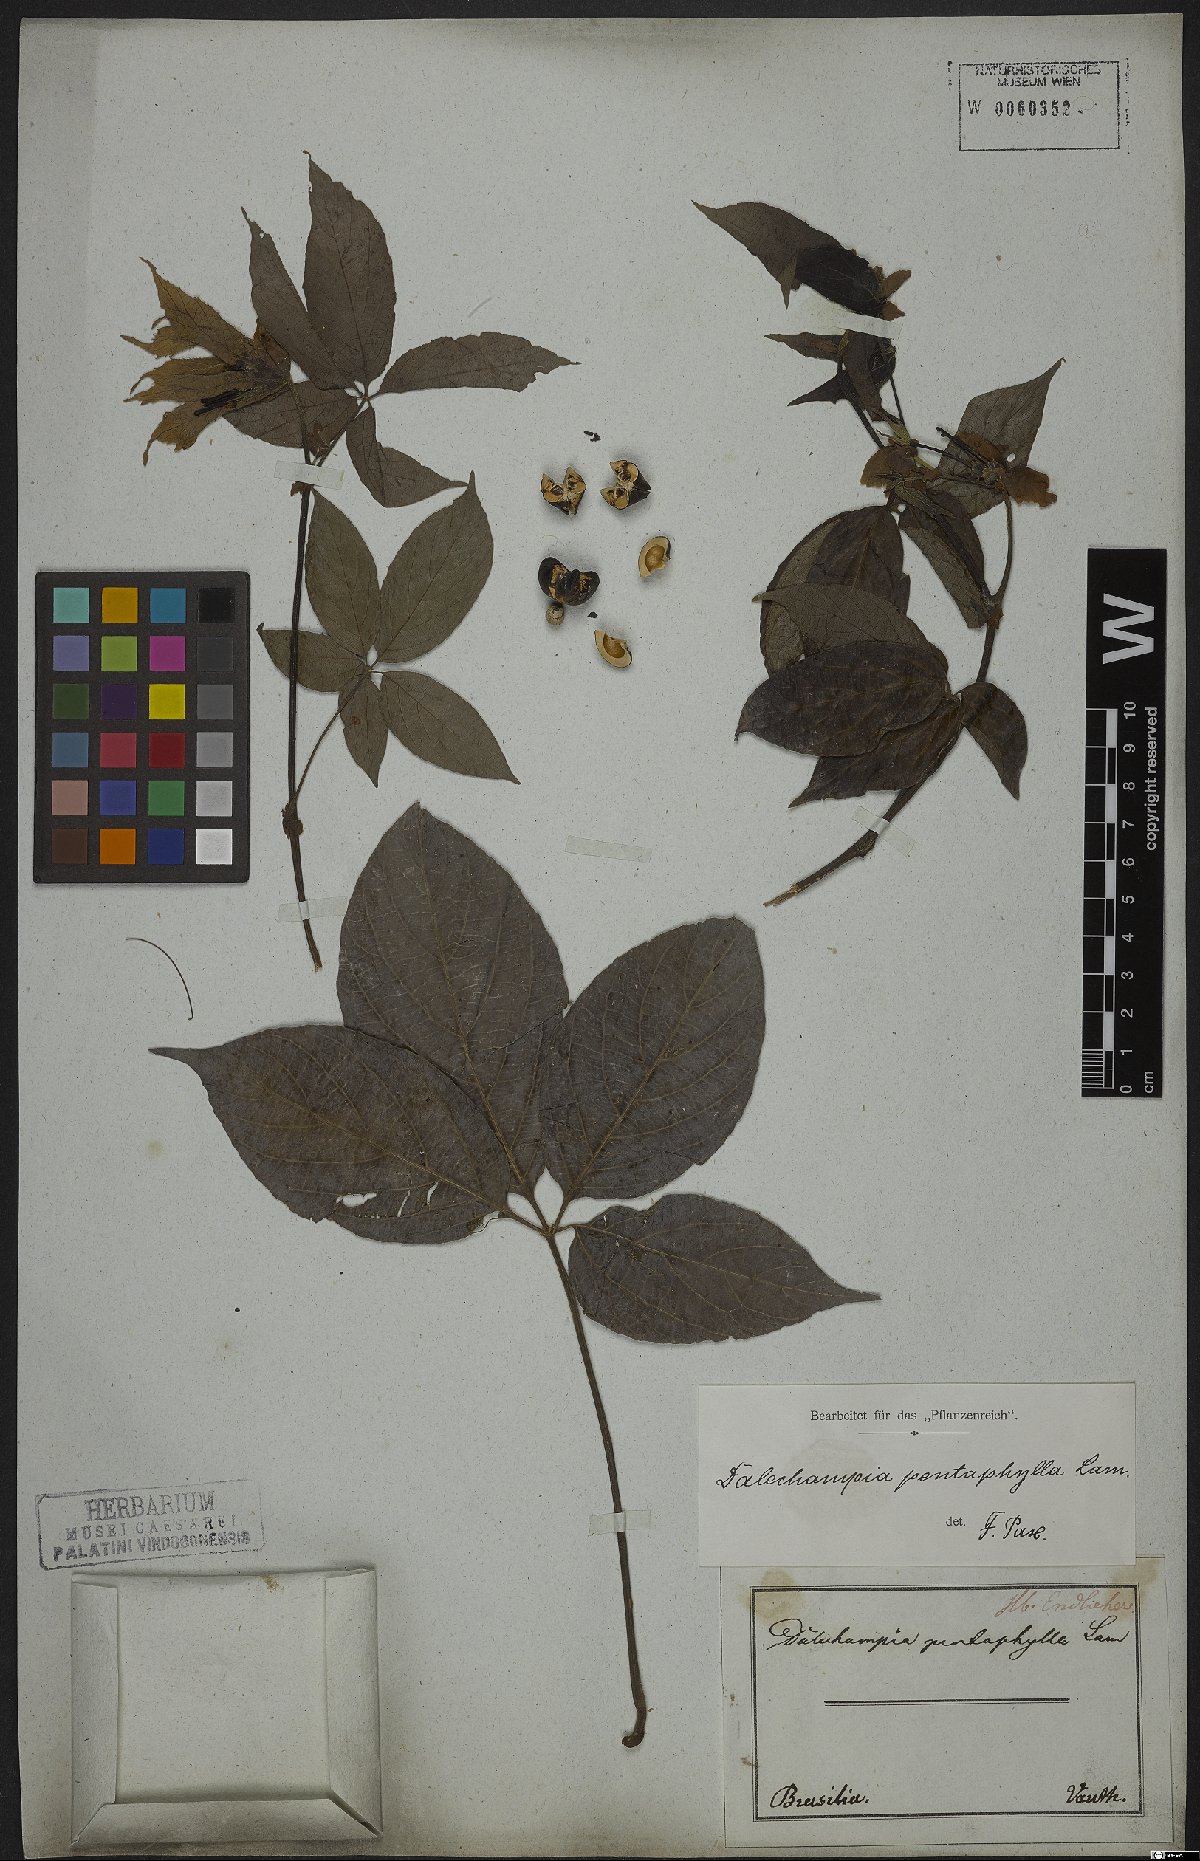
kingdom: Plantae
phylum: Tracheophyta
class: Magnoliopsida
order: Malpighiales
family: Euphorbiaceae
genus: Dalechampia
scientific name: Dalechampia pentaphylla
